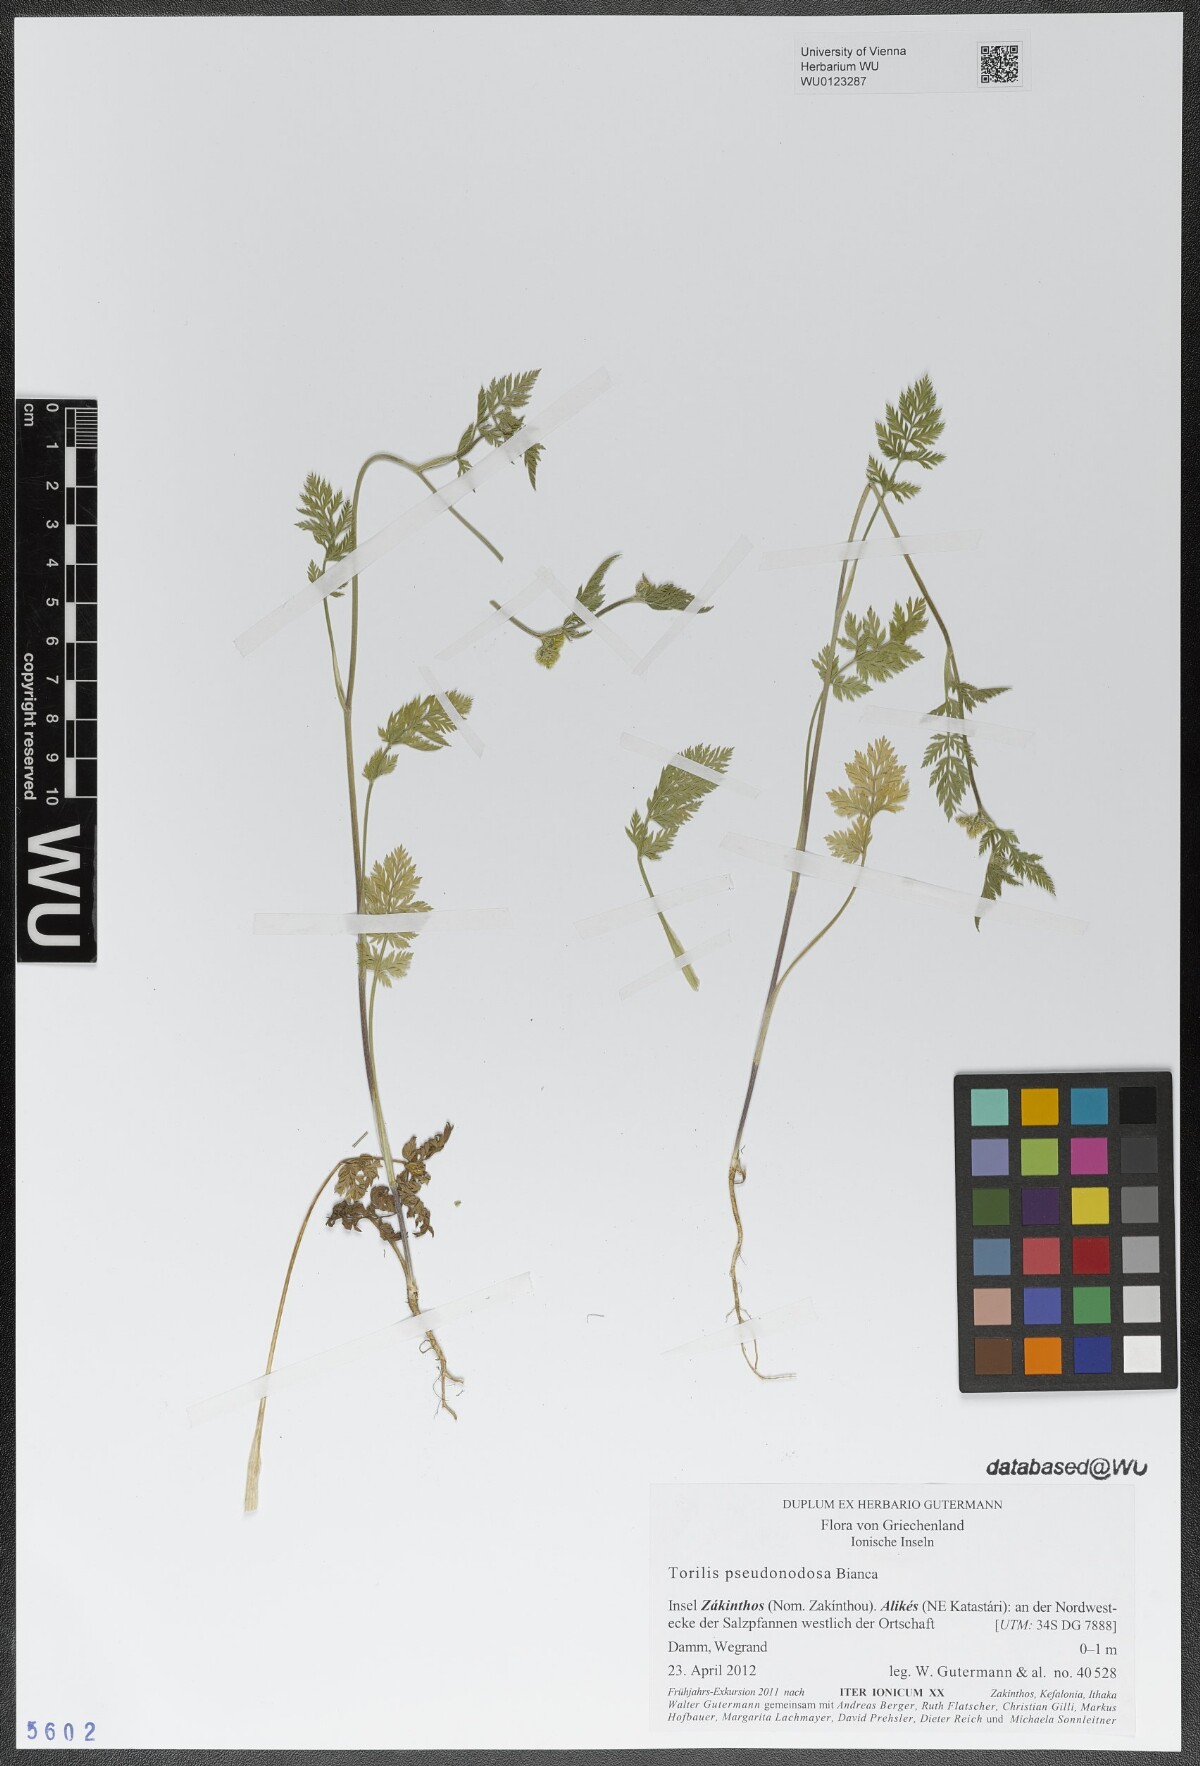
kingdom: Plantae
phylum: Tracheophyta
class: Magnoliopsida
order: Apiales
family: Apiaceae
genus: Torilis
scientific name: Torilis pseudonodosa
